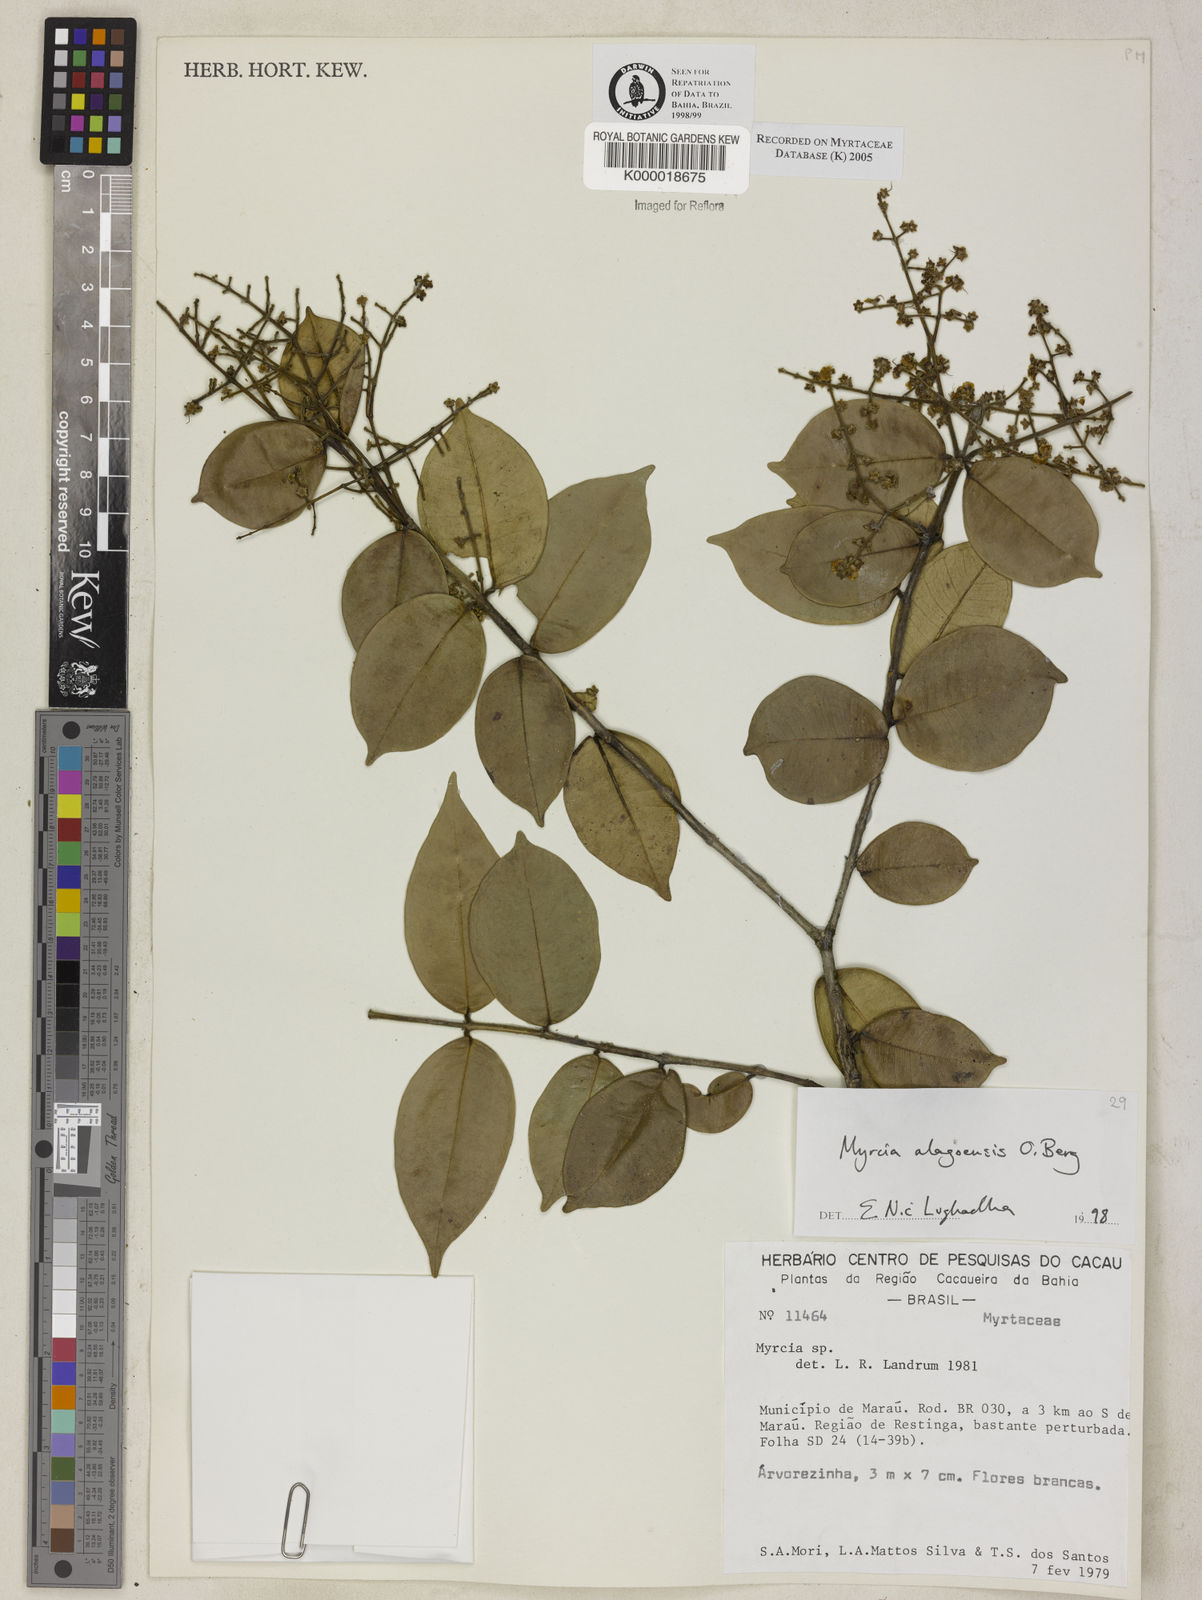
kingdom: Plantae
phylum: Tracheophyta
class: Magnoliopsida
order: Myrtales
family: Myrtaceae
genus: Myrcia
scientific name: Myrcia splendens
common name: Surinam cherry
